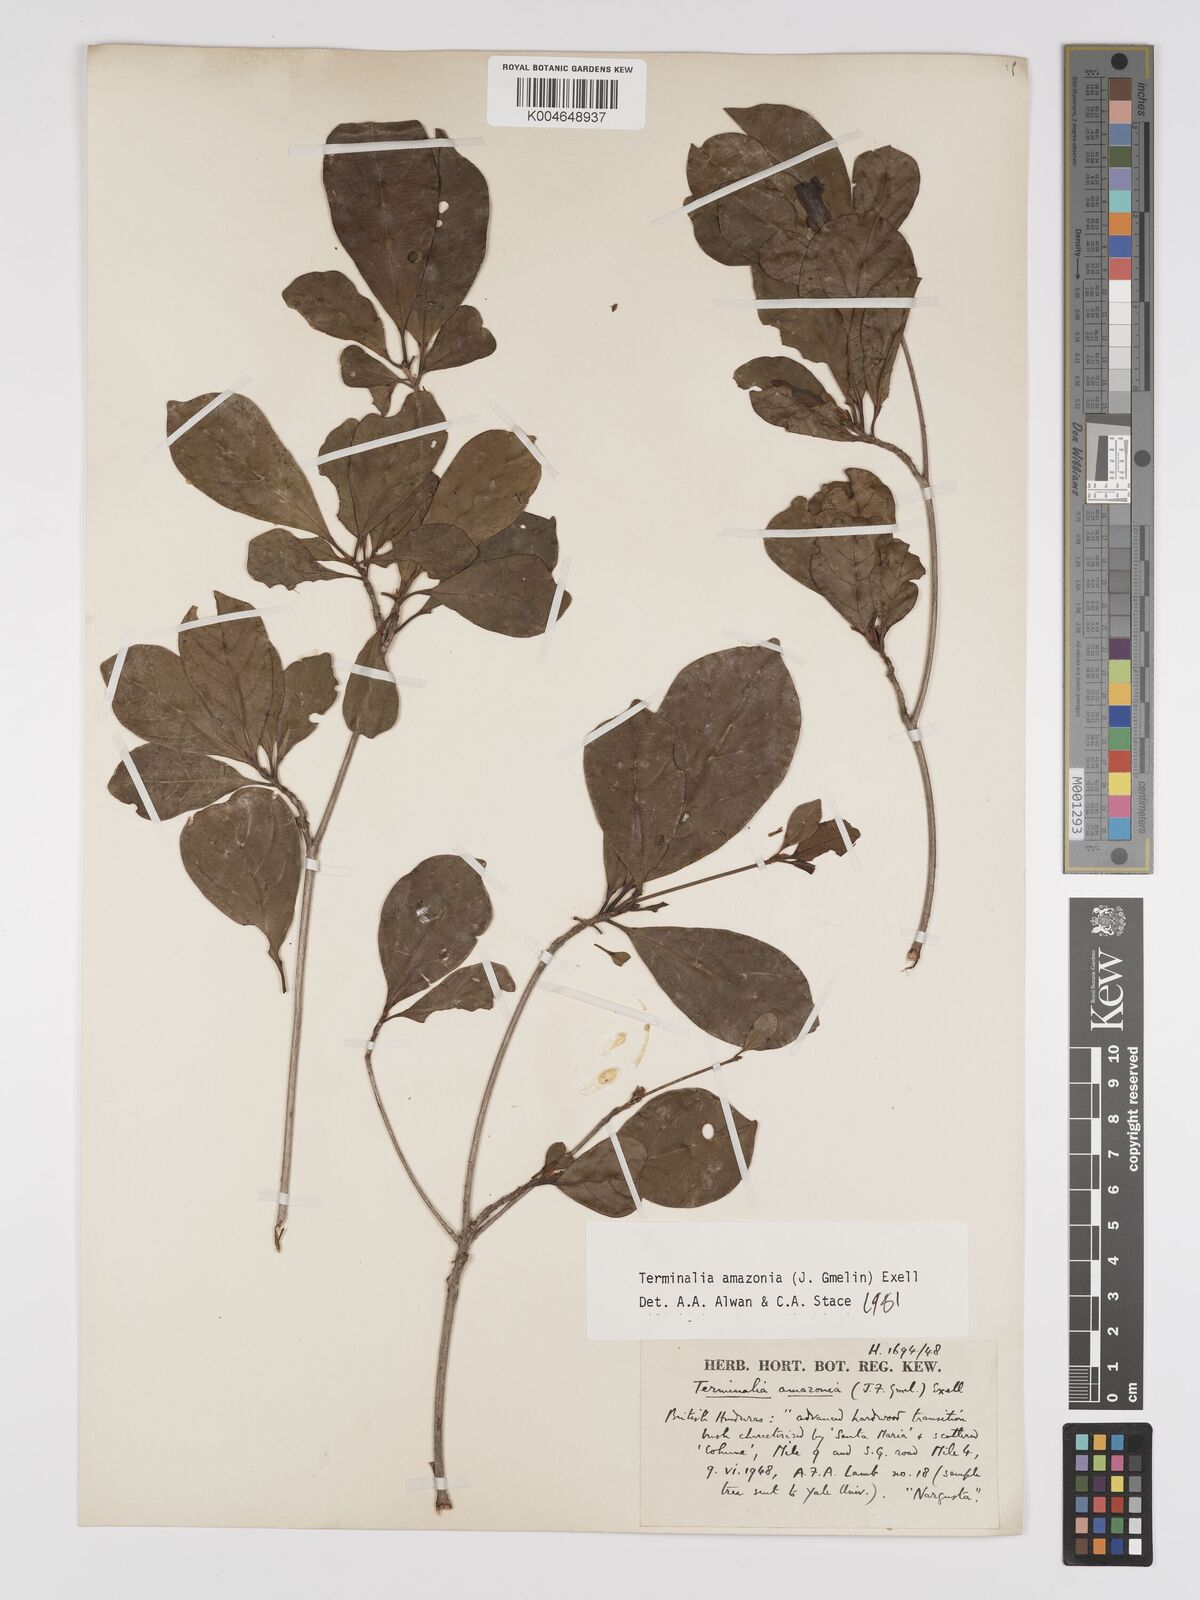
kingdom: Plantae
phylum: Tracheophyta
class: Magnoliopsida
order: Myrtales
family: Combretaceae
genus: Terminalia
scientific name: Terminalia amazonica
